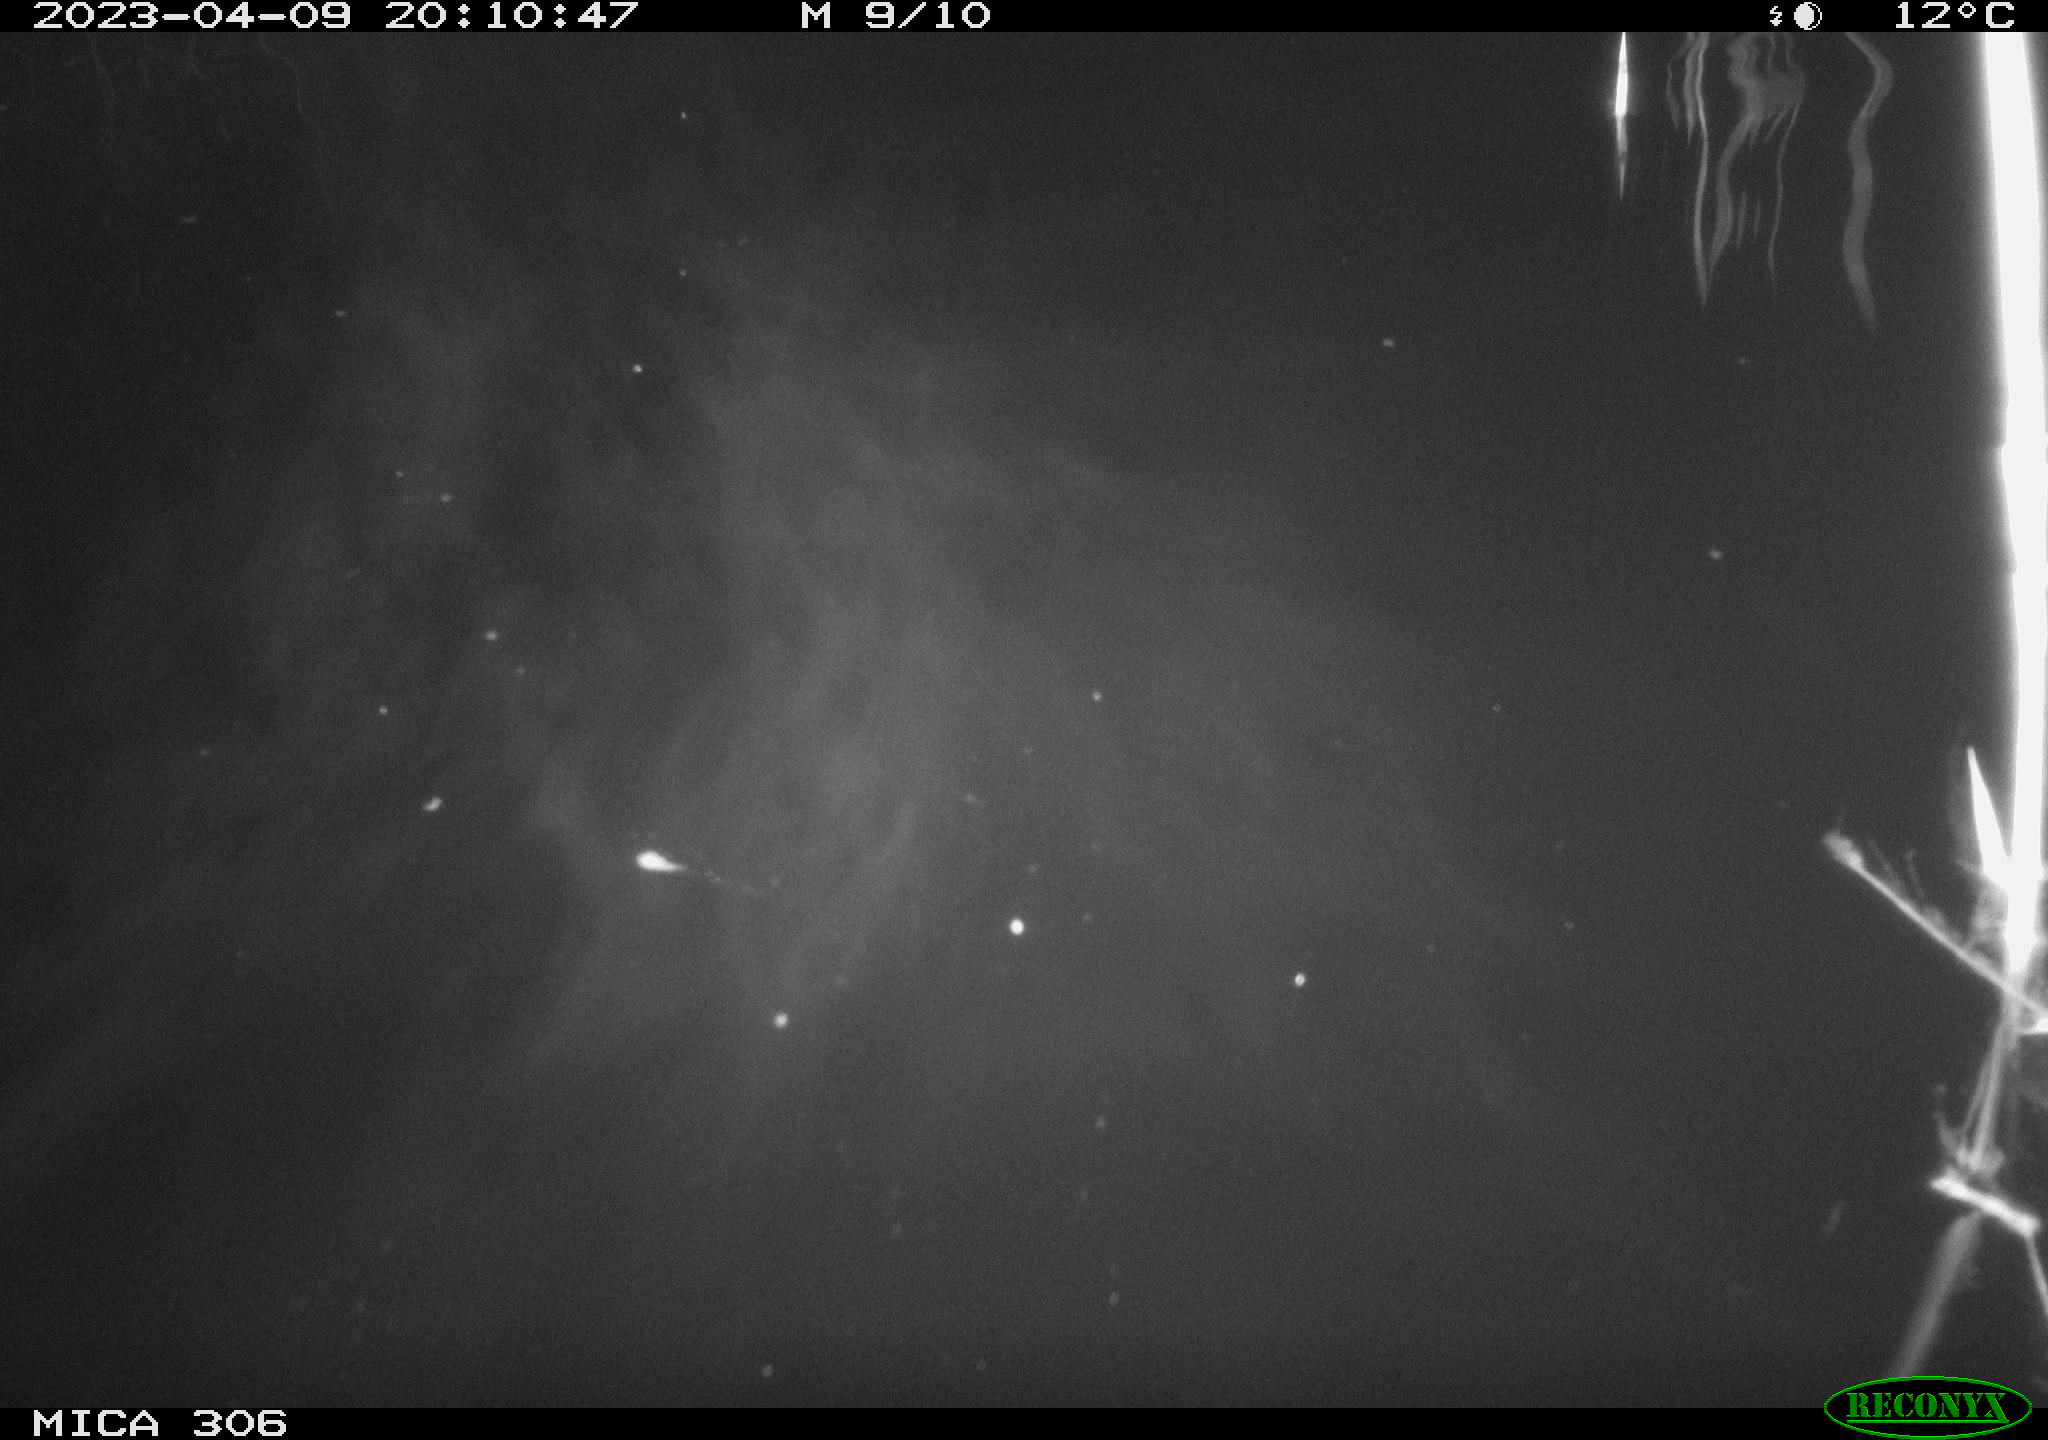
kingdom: Animalia
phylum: Chordata
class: Aves
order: Anseriformes
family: Anatidae
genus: Anas
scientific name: Anas
